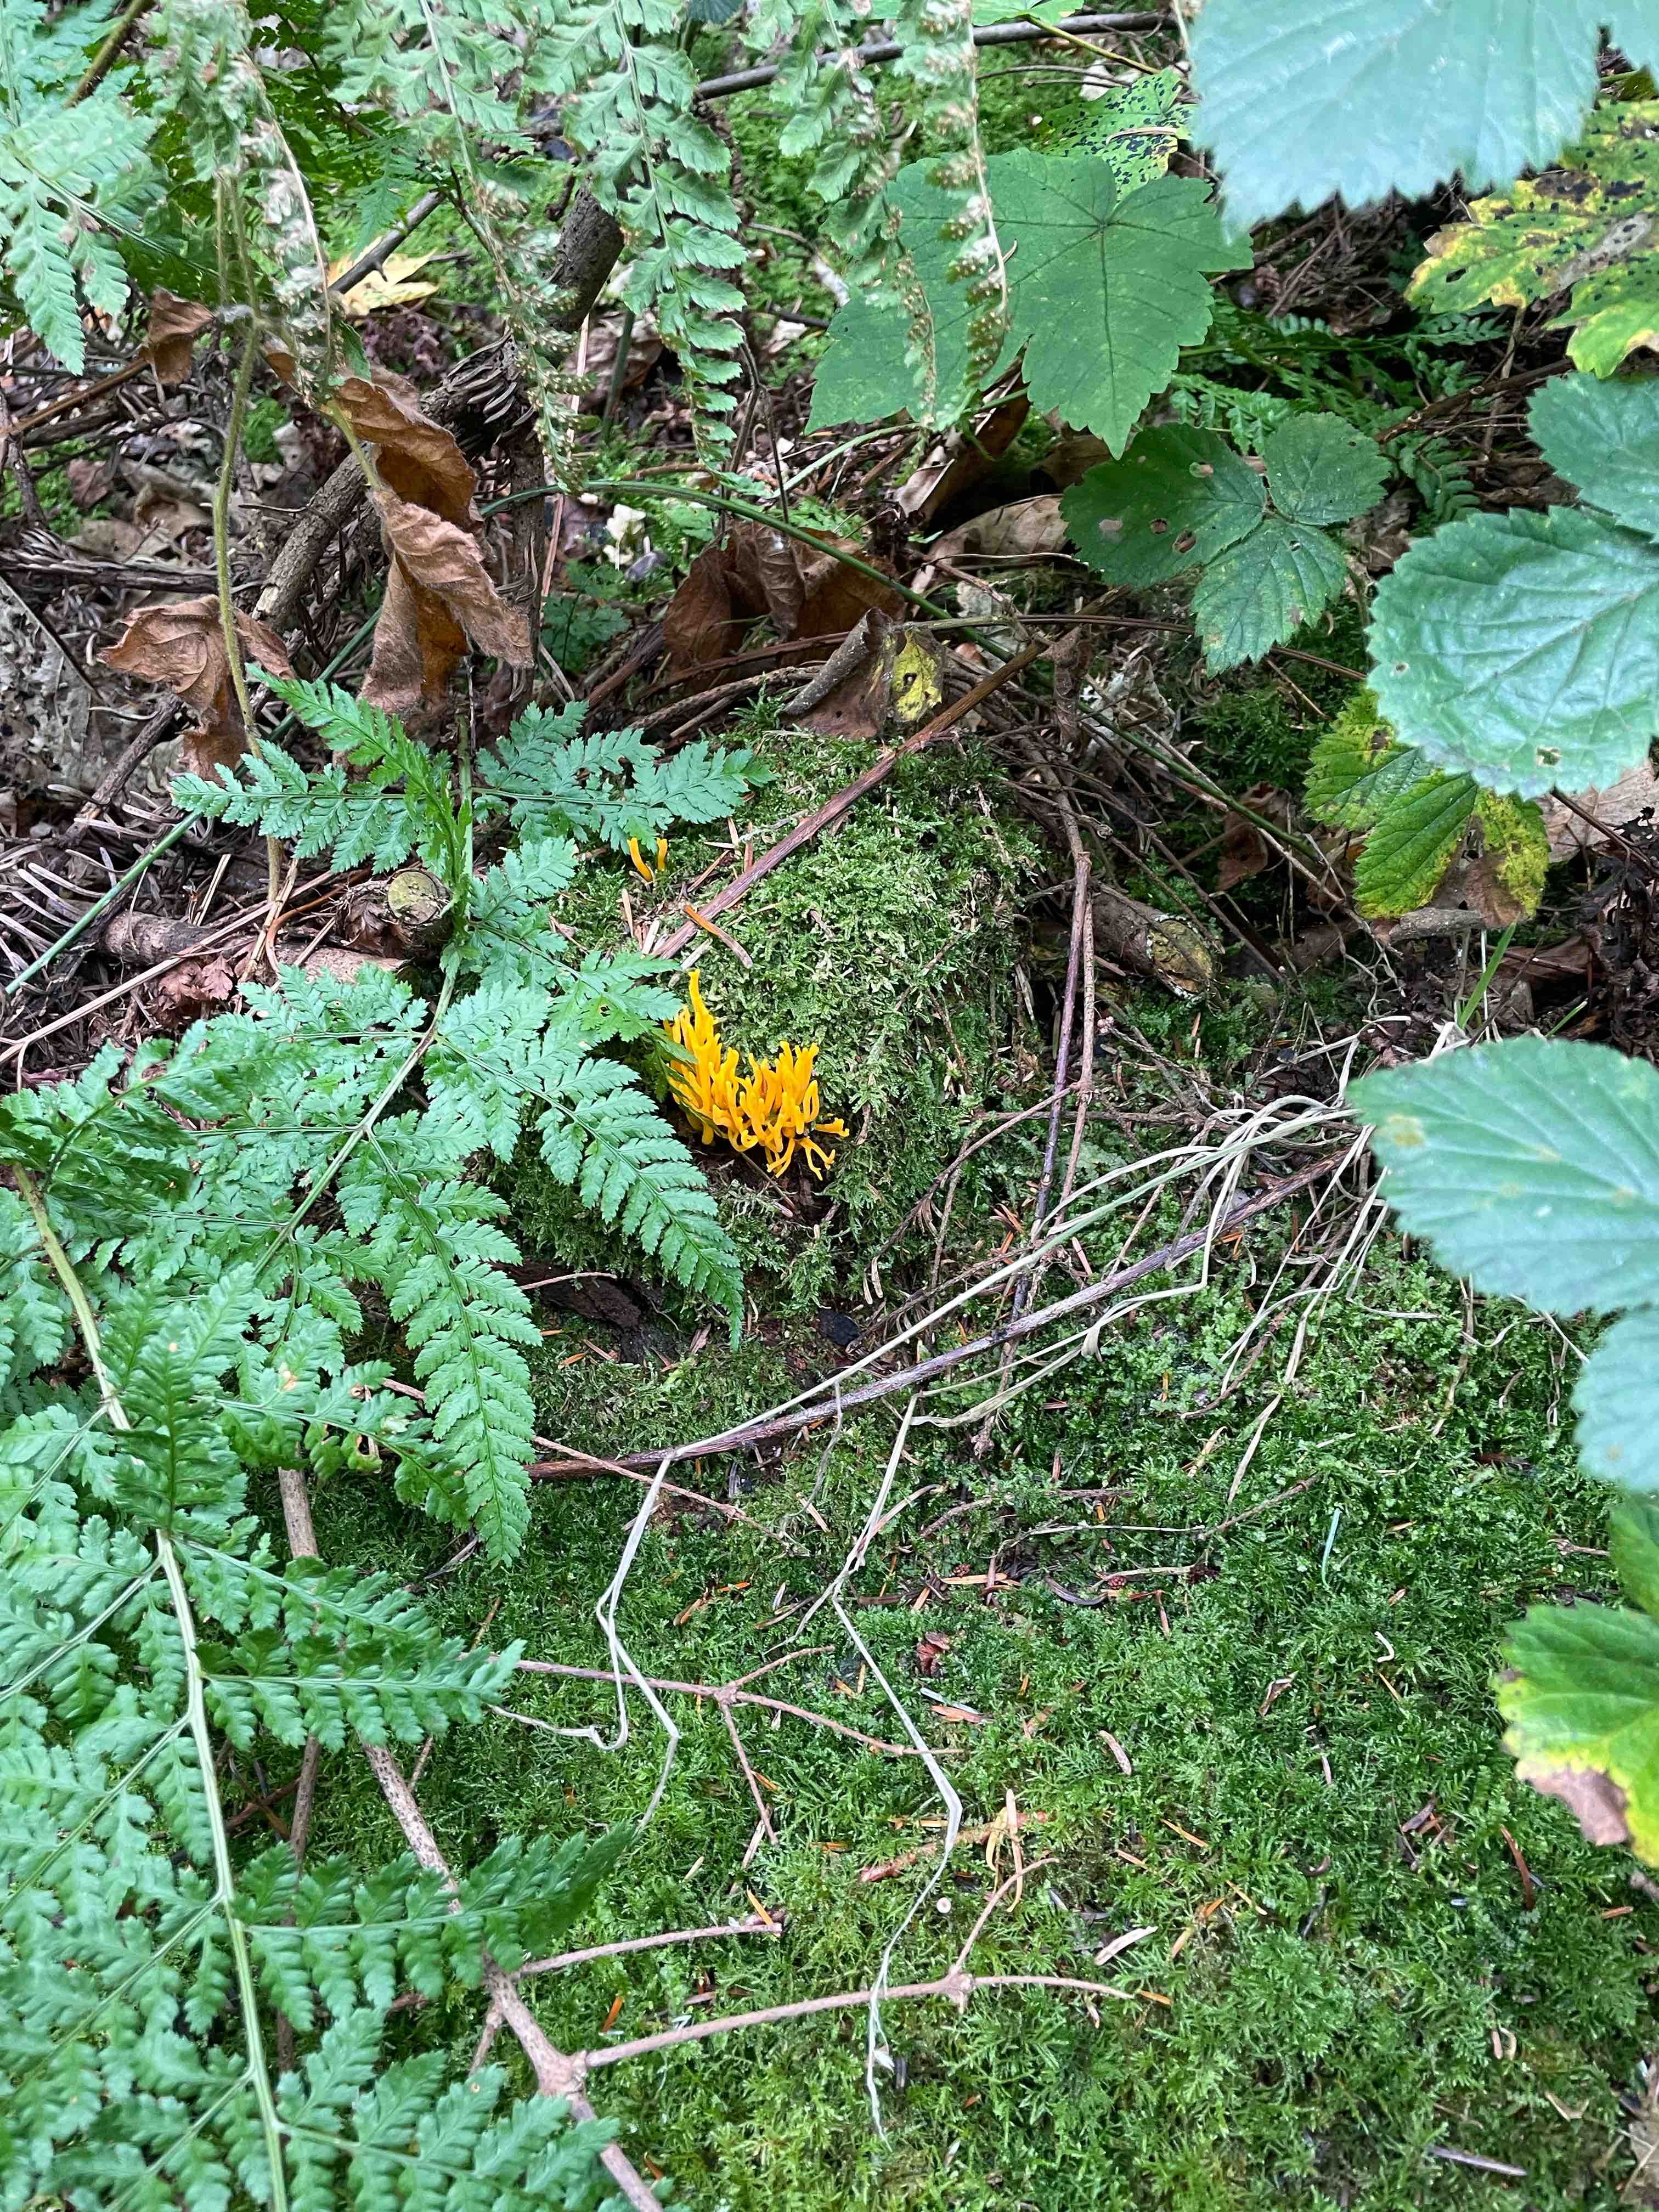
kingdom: Fungi
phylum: Basidiomycota
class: Dacrymycetes
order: Dacrymycetales
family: Dacrymycetaceae
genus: Calocera
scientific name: Calocera viscosa
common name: almindelig guldgaffel
